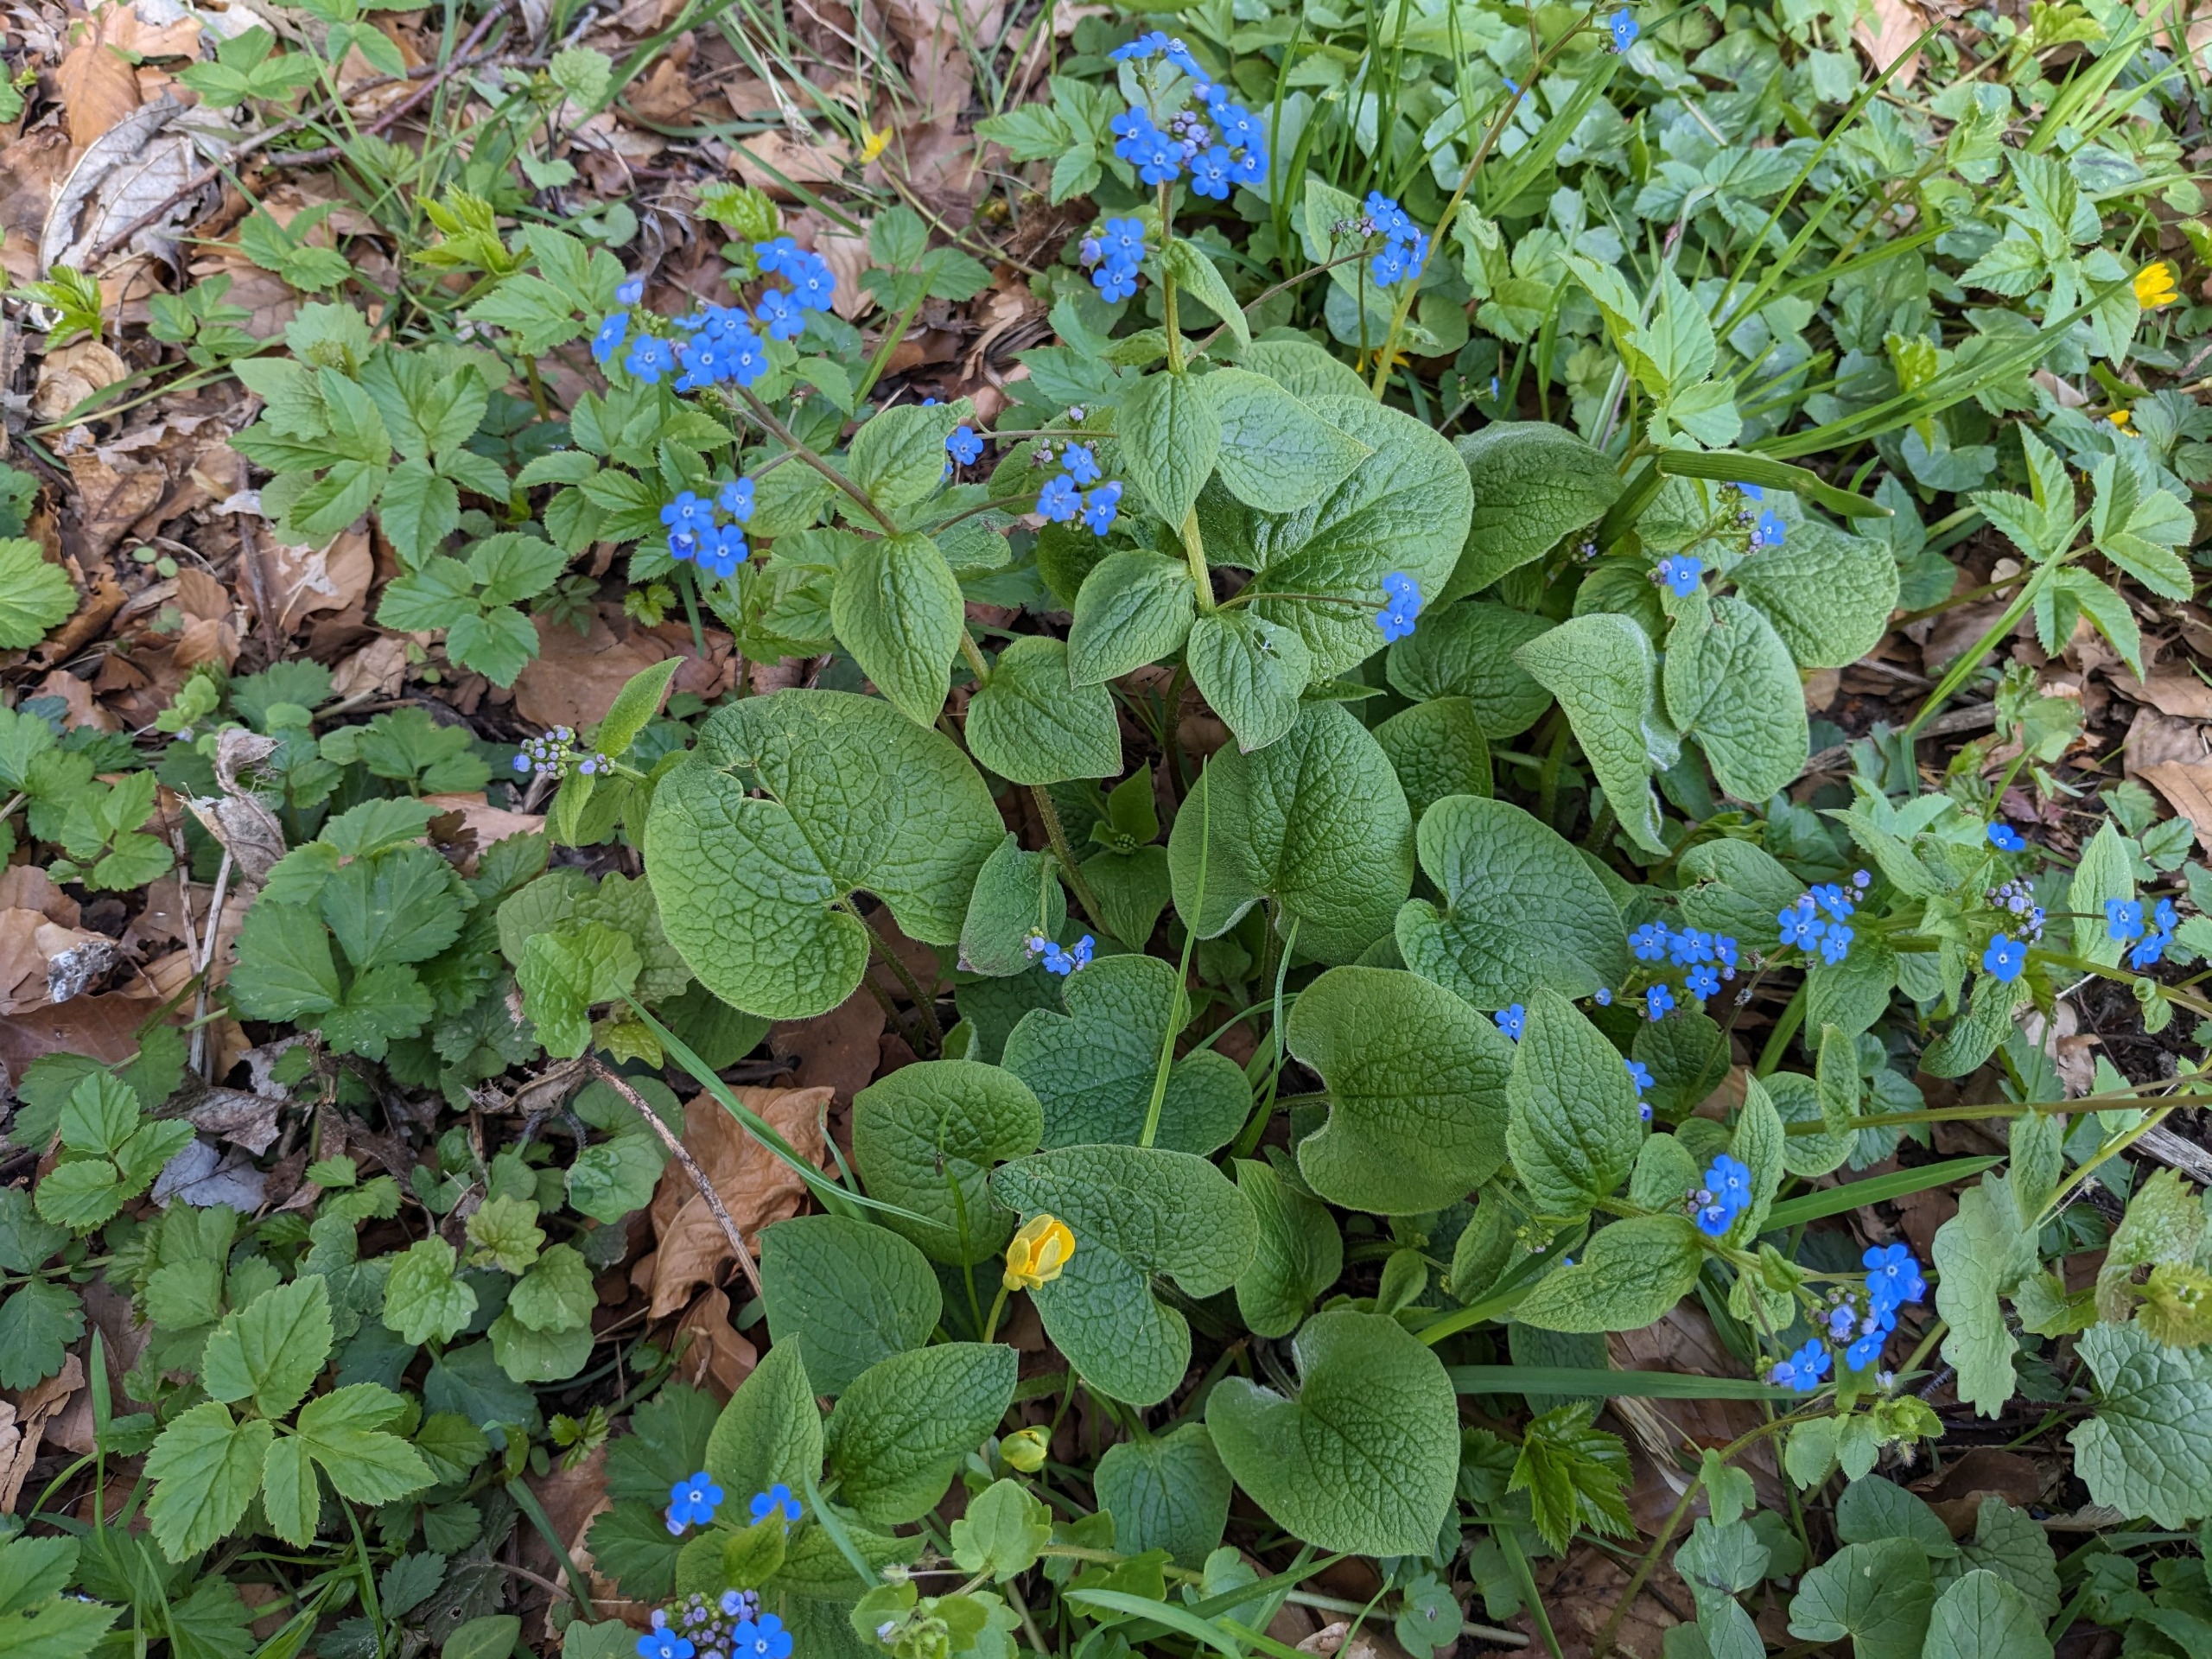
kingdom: Plantae
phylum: Tracheophyta
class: Magnoliopsida
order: Boraginales
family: Boraginaceae
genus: Brunnera
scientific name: Brunnera macrophylla
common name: Kærmindesøster
